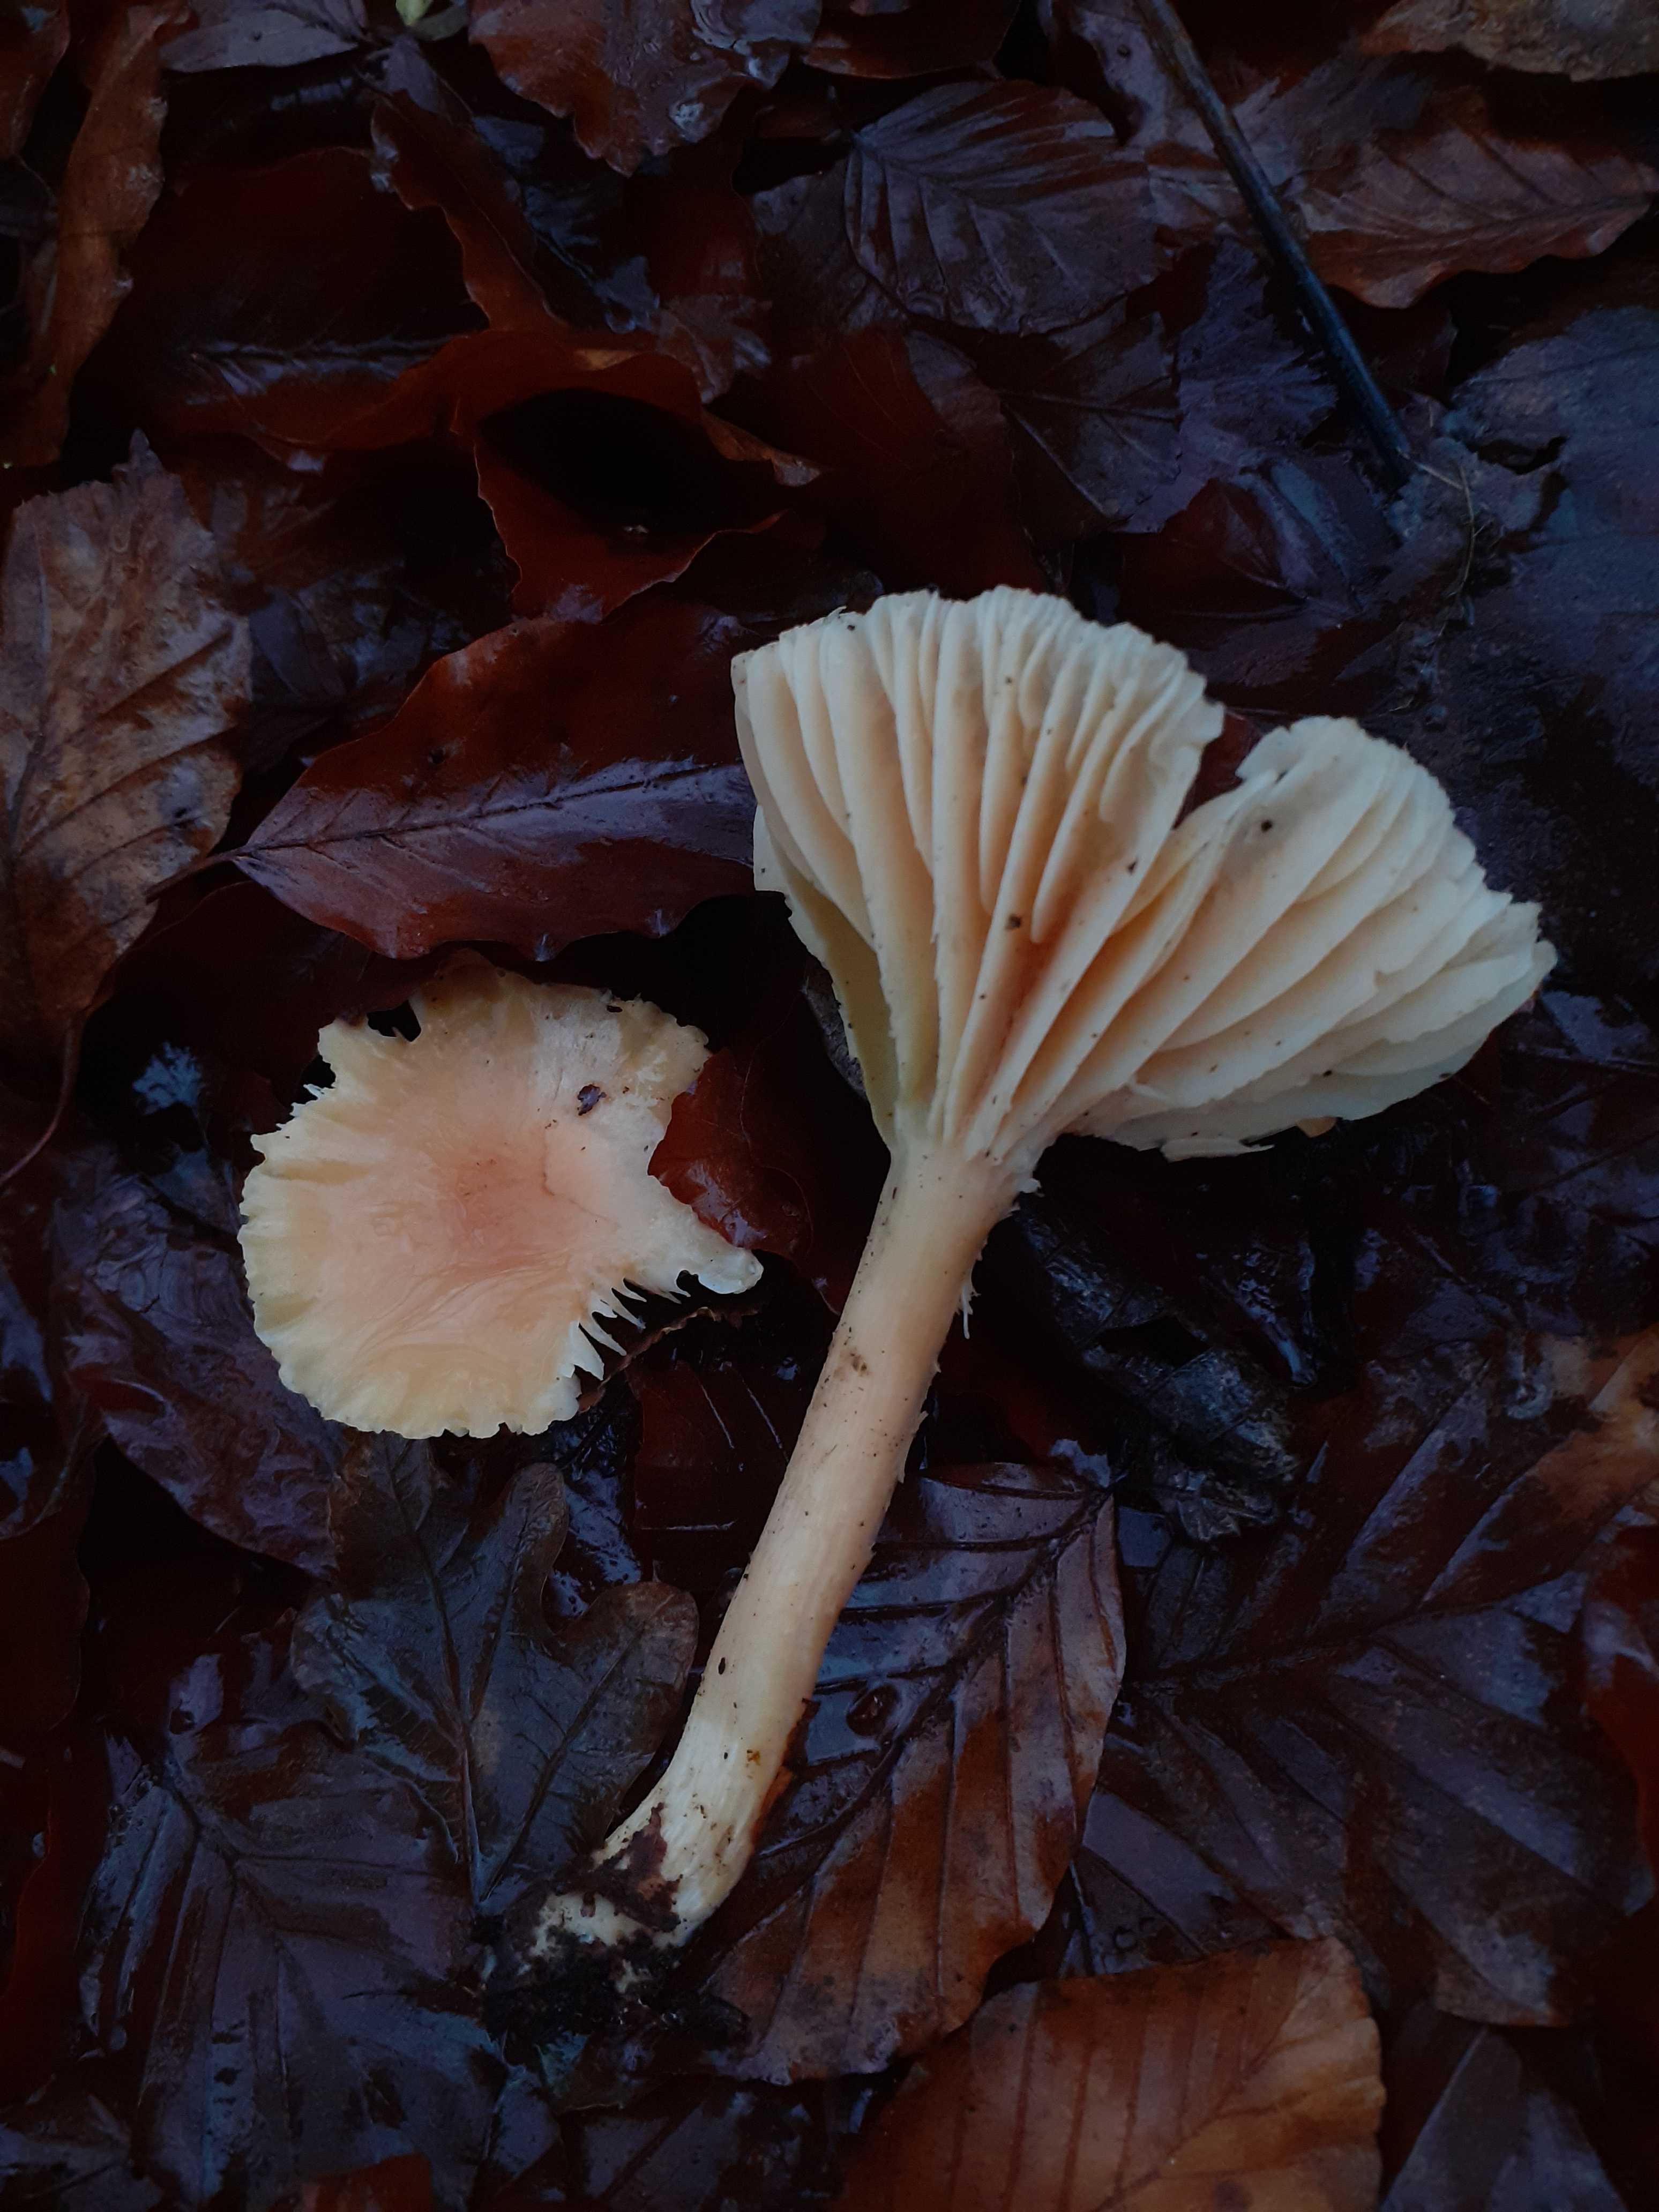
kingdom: Fungi
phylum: Basidiomycota
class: Agaricomycetes
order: Agaricales
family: Hygrophoraceae
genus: Cuphophyllus
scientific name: Cuphophyllus pratensis
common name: eng-vokshat
